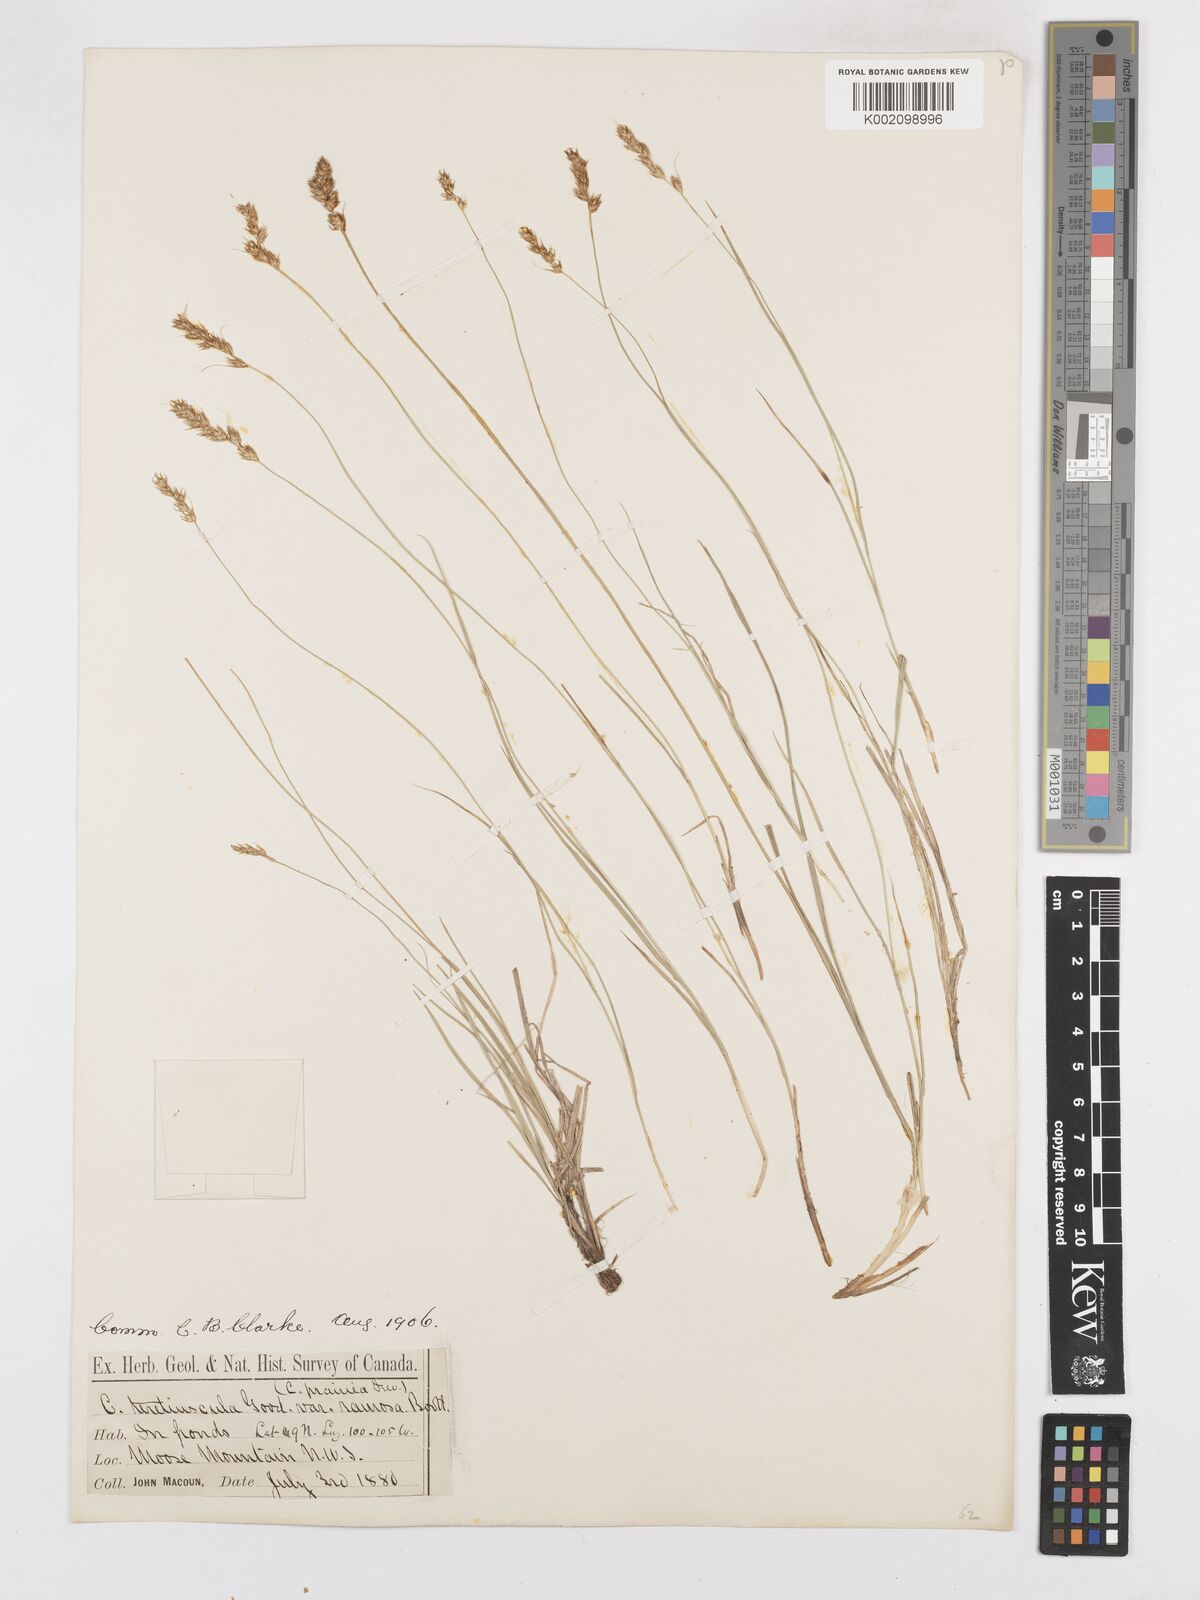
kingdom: Plantae
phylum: Tracheophyta
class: Liliopsida
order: Poales
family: Cyperaceae
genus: Carex
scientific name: Carex diandra
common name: Lesser tussock-sedge
